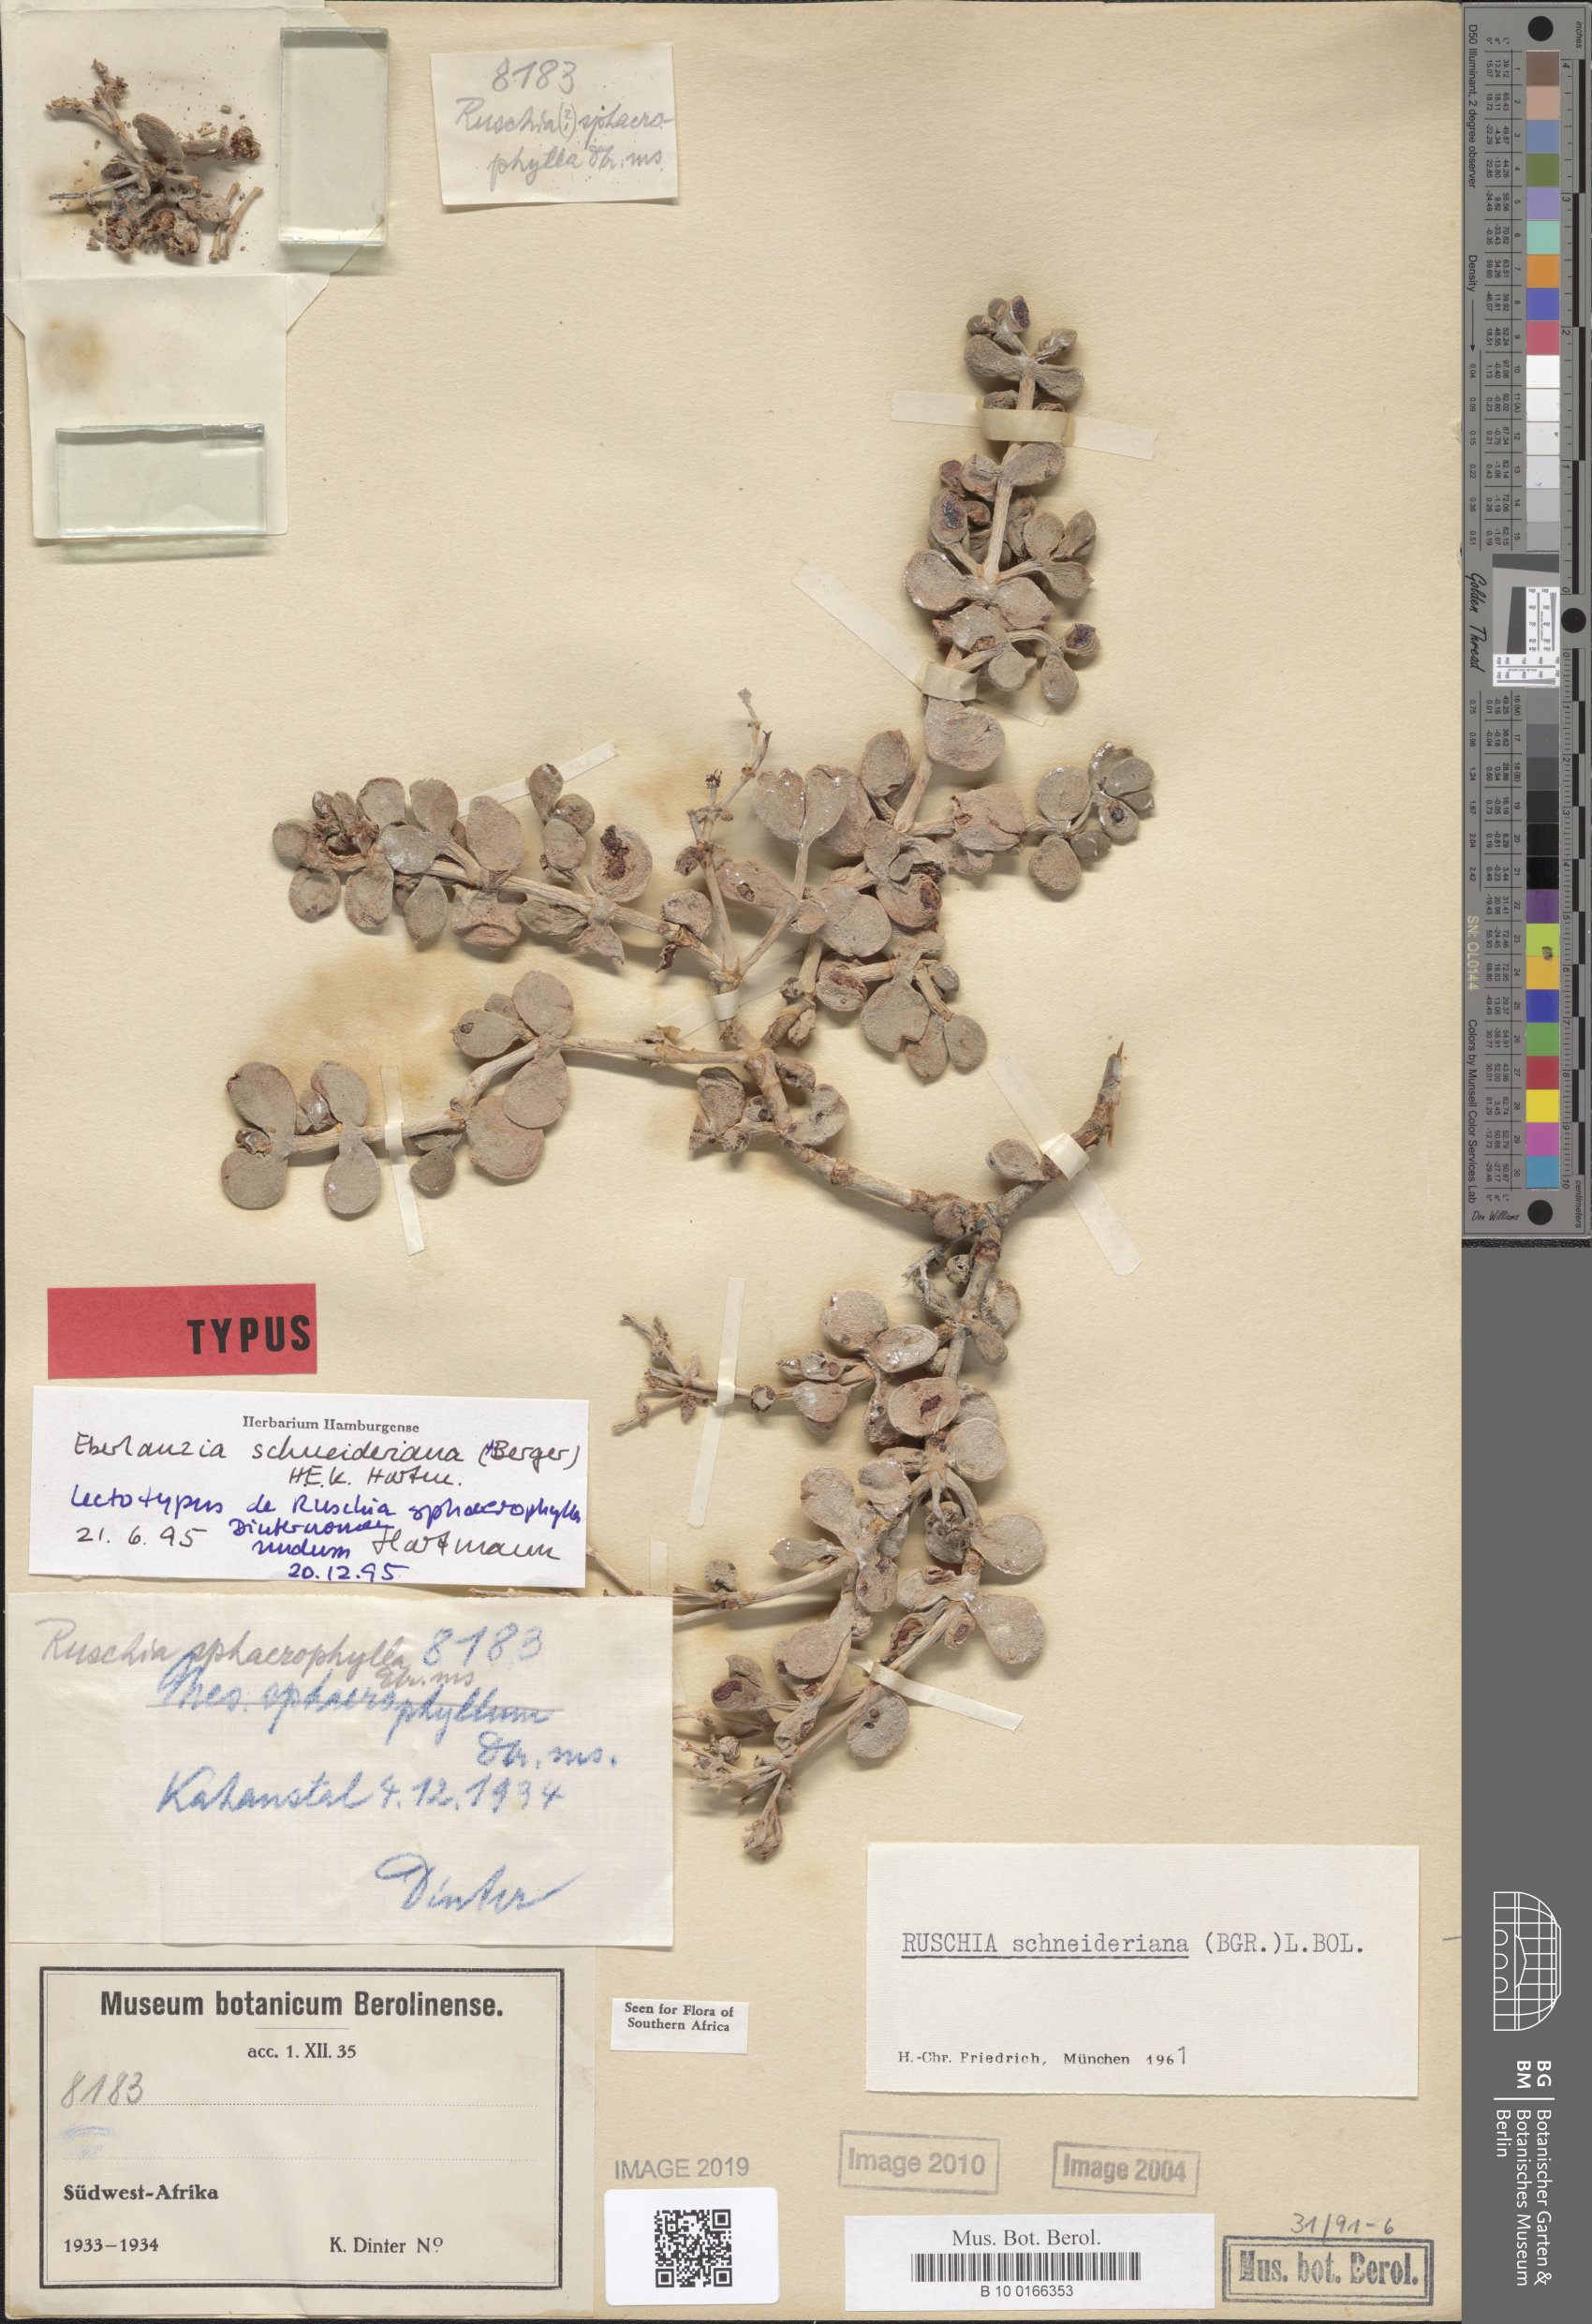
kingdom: Plantae
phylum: Tracheophyta
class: Magnoliopsida
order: Caryophyllales
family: Aizoaceae
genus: Eberlanzia
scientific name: Eberlanzia schneideriana
